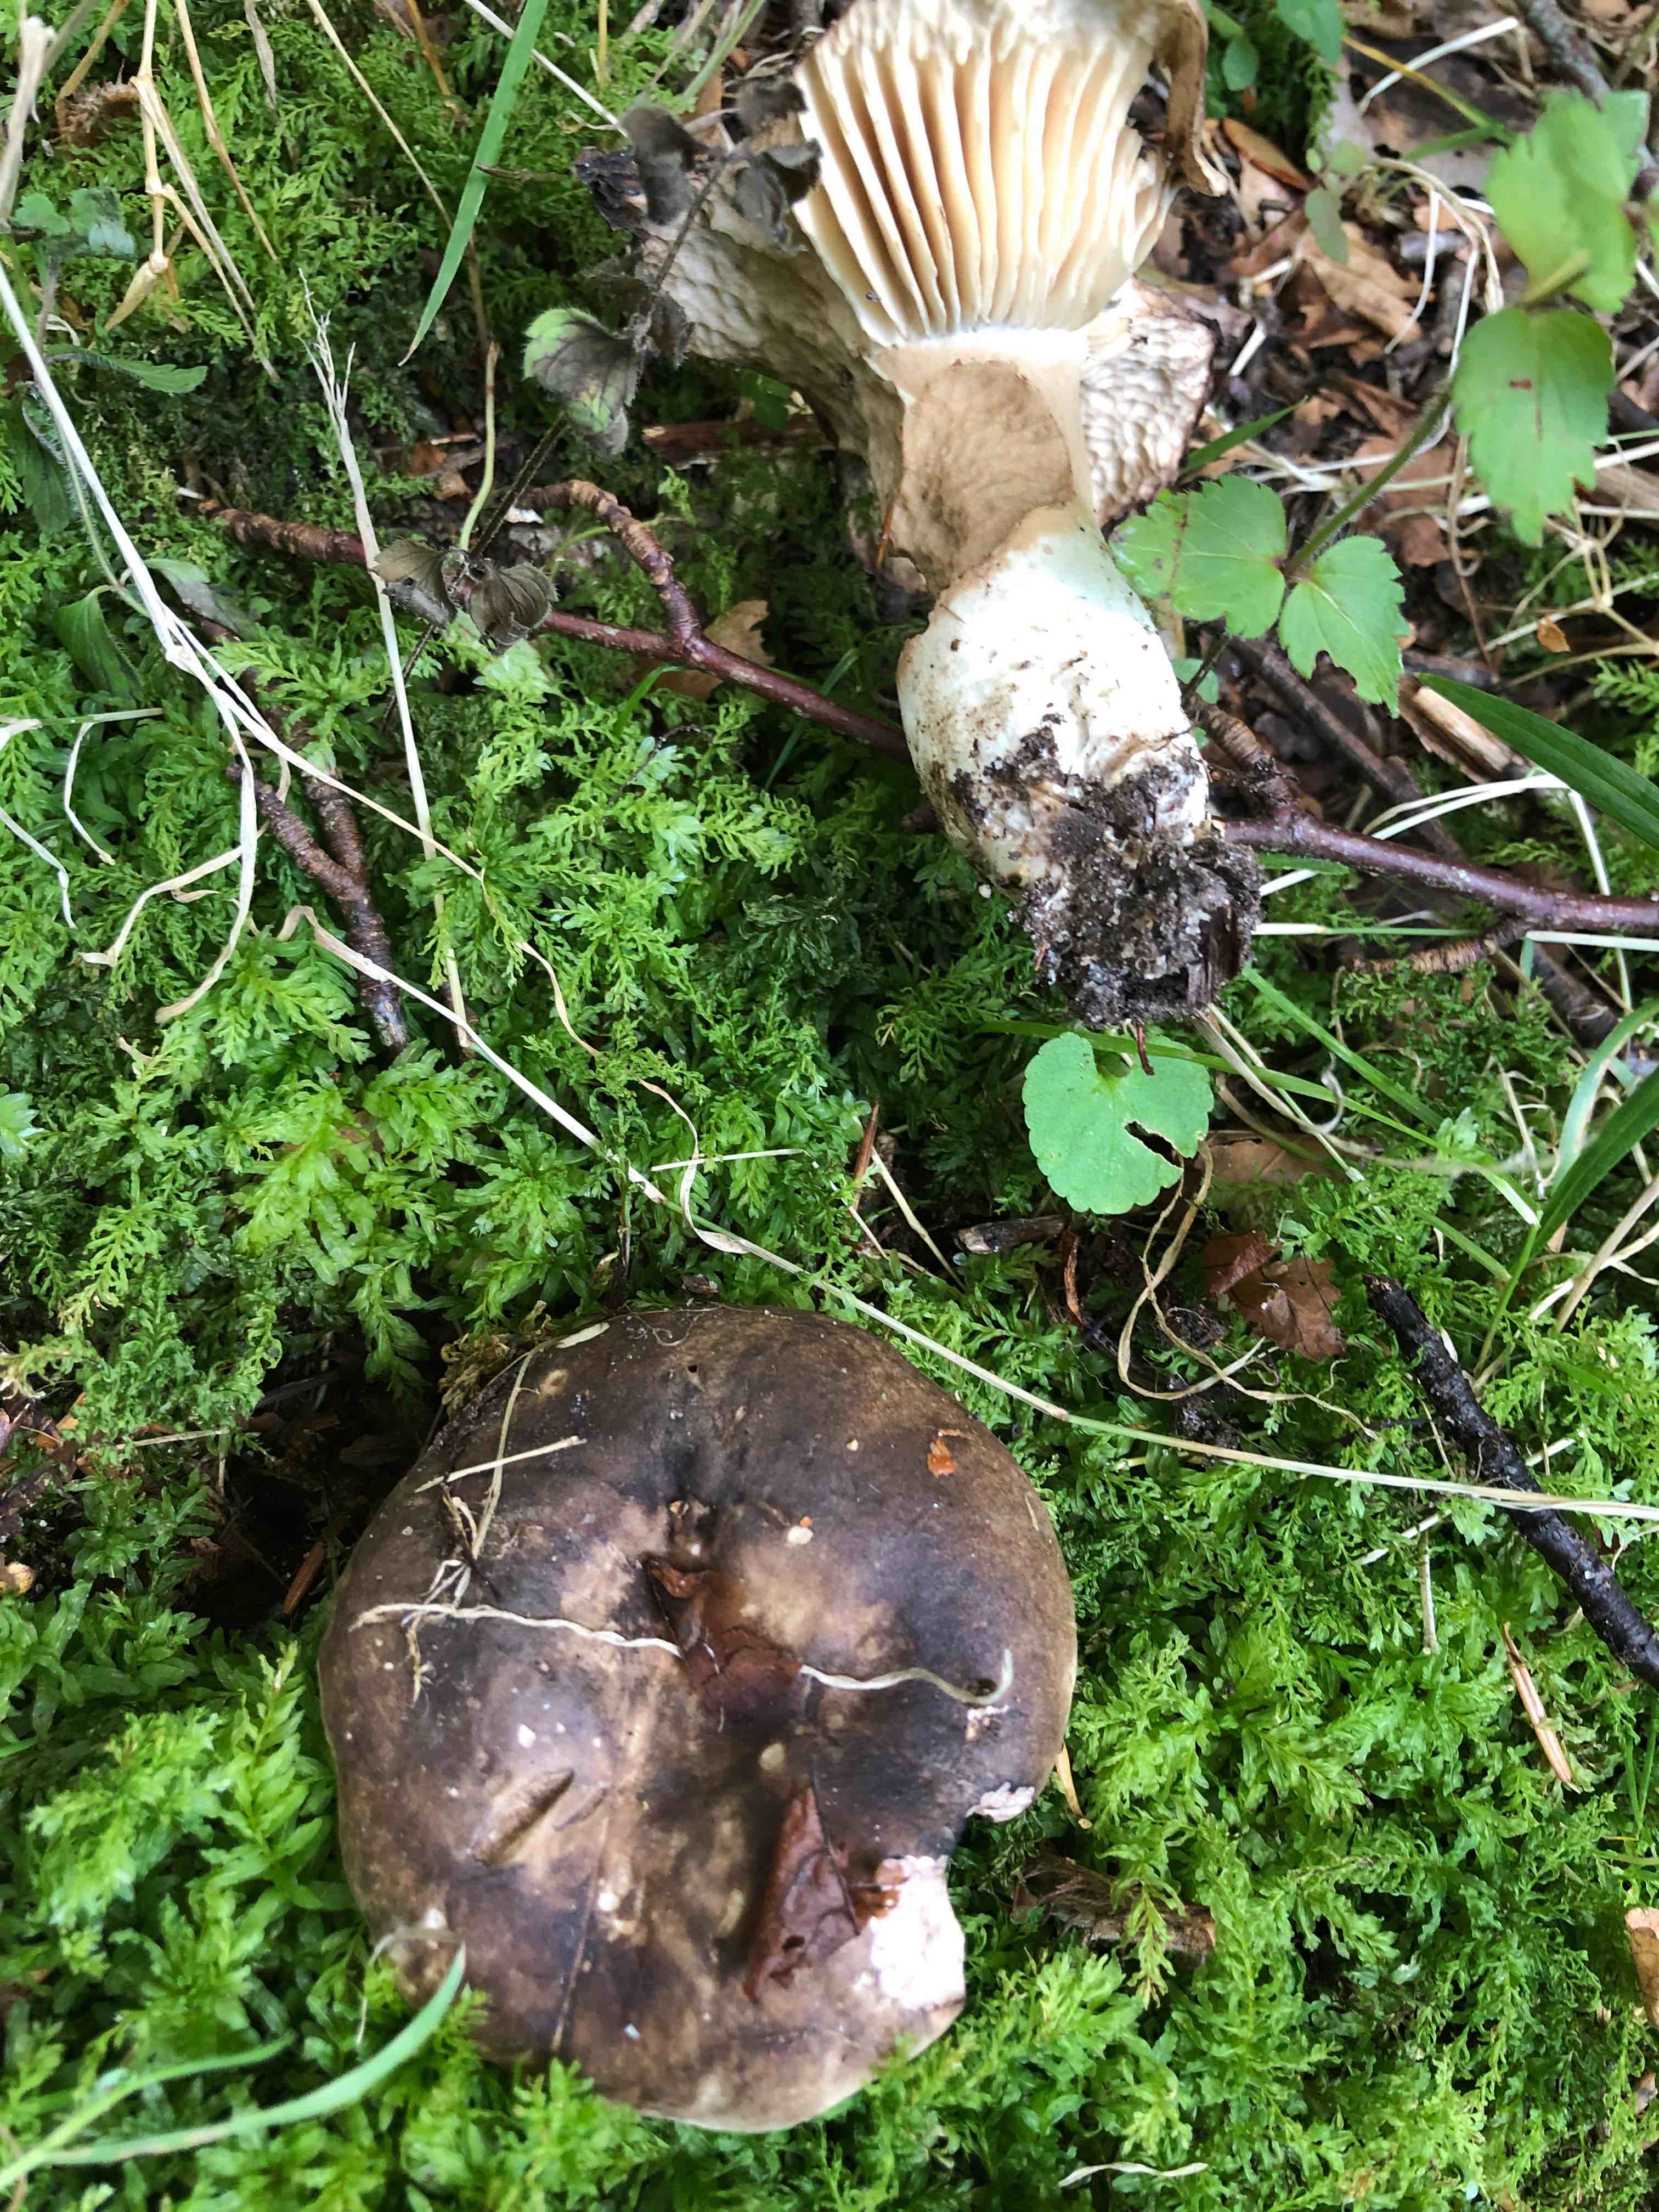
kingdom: Fungi
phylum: Basidiomycota
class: Agaricomycetes
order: Russulales
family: Russulaceae
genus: Russula
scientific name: Russula adusta
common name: sværtende skørhat
